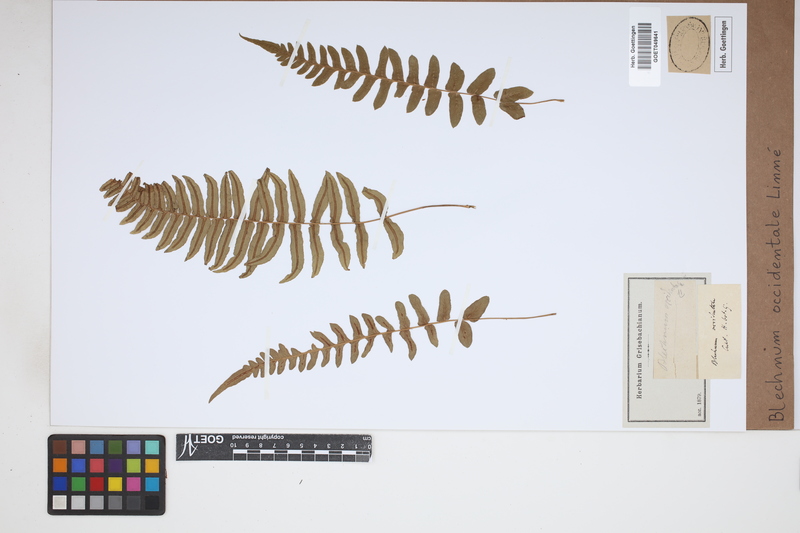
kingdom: Plantae
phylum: Tracheophyta
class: Polypodiopsida
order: Polypodiales
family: Blechnaceae
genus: Blechnum
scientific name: Blechnum occidentale
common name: Hammock fern
